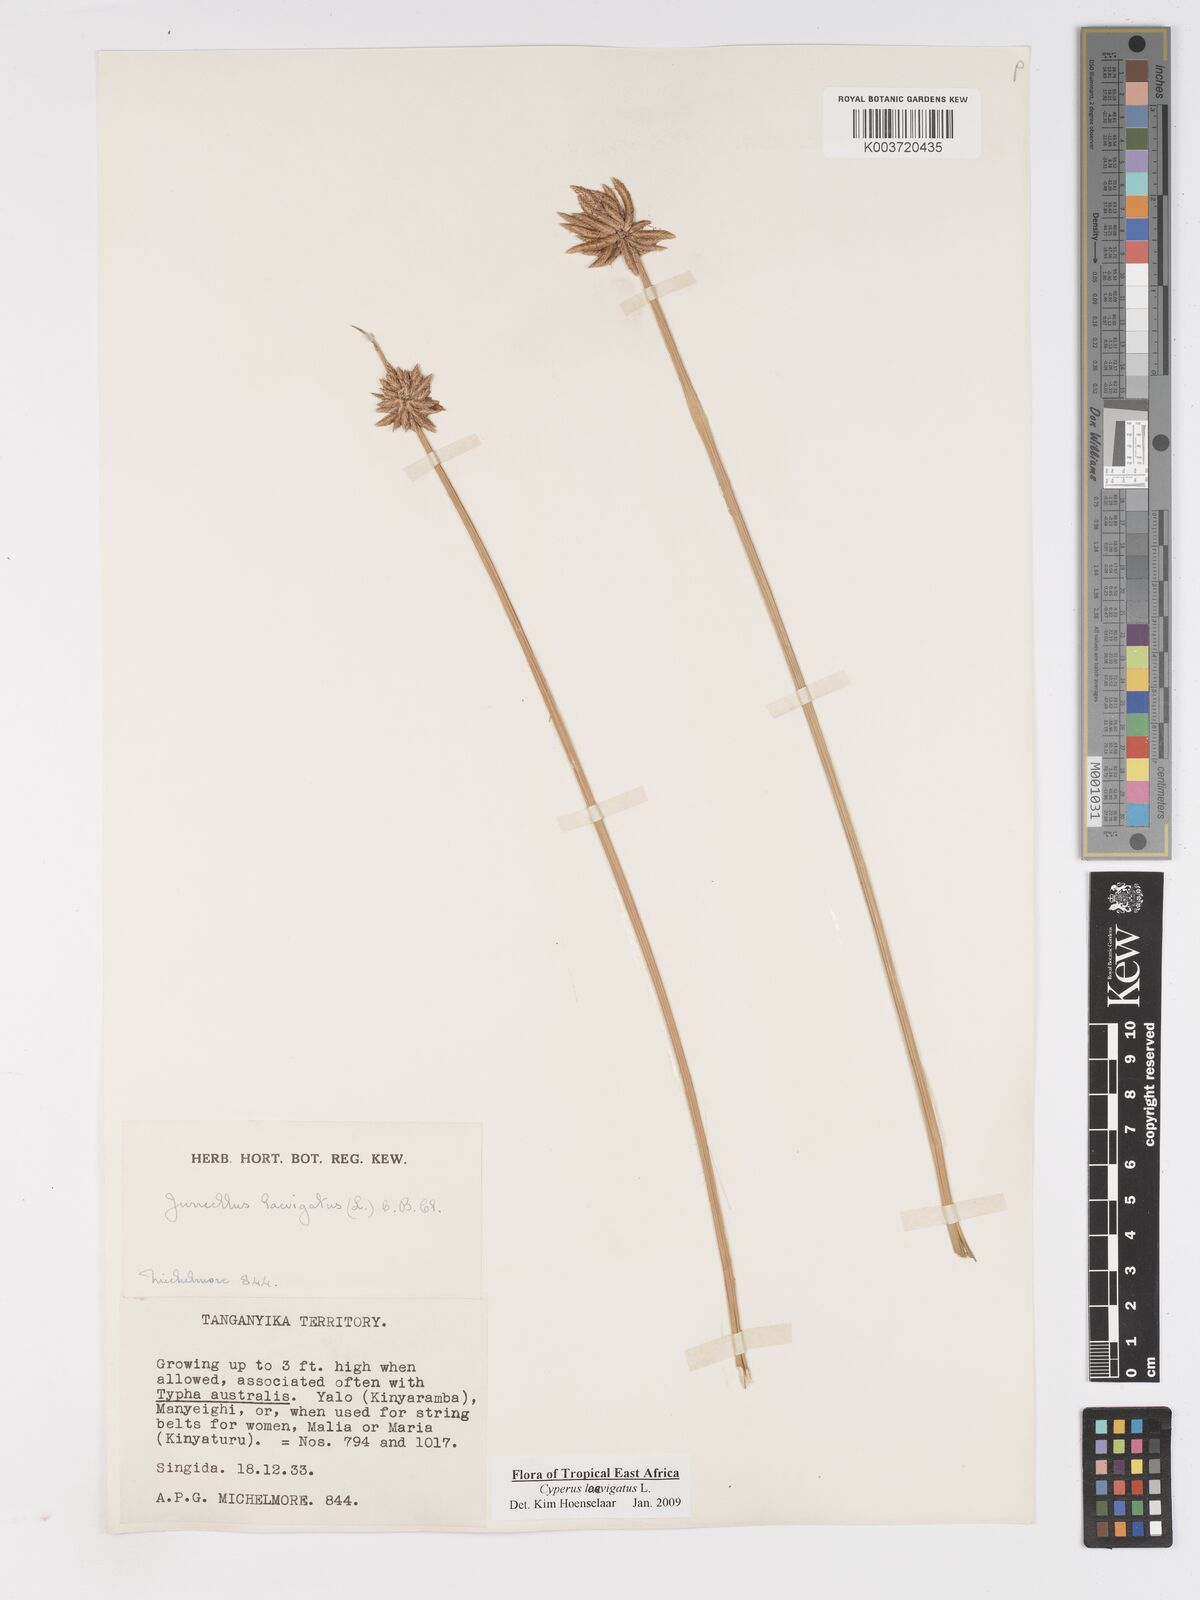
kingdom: Plantae
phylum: Tracheophyta
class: Liliopsida
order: Poales
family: Cyperaceae
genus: Cyperus
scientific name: Cyperus laevigatus
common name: Smooth flat sedge
